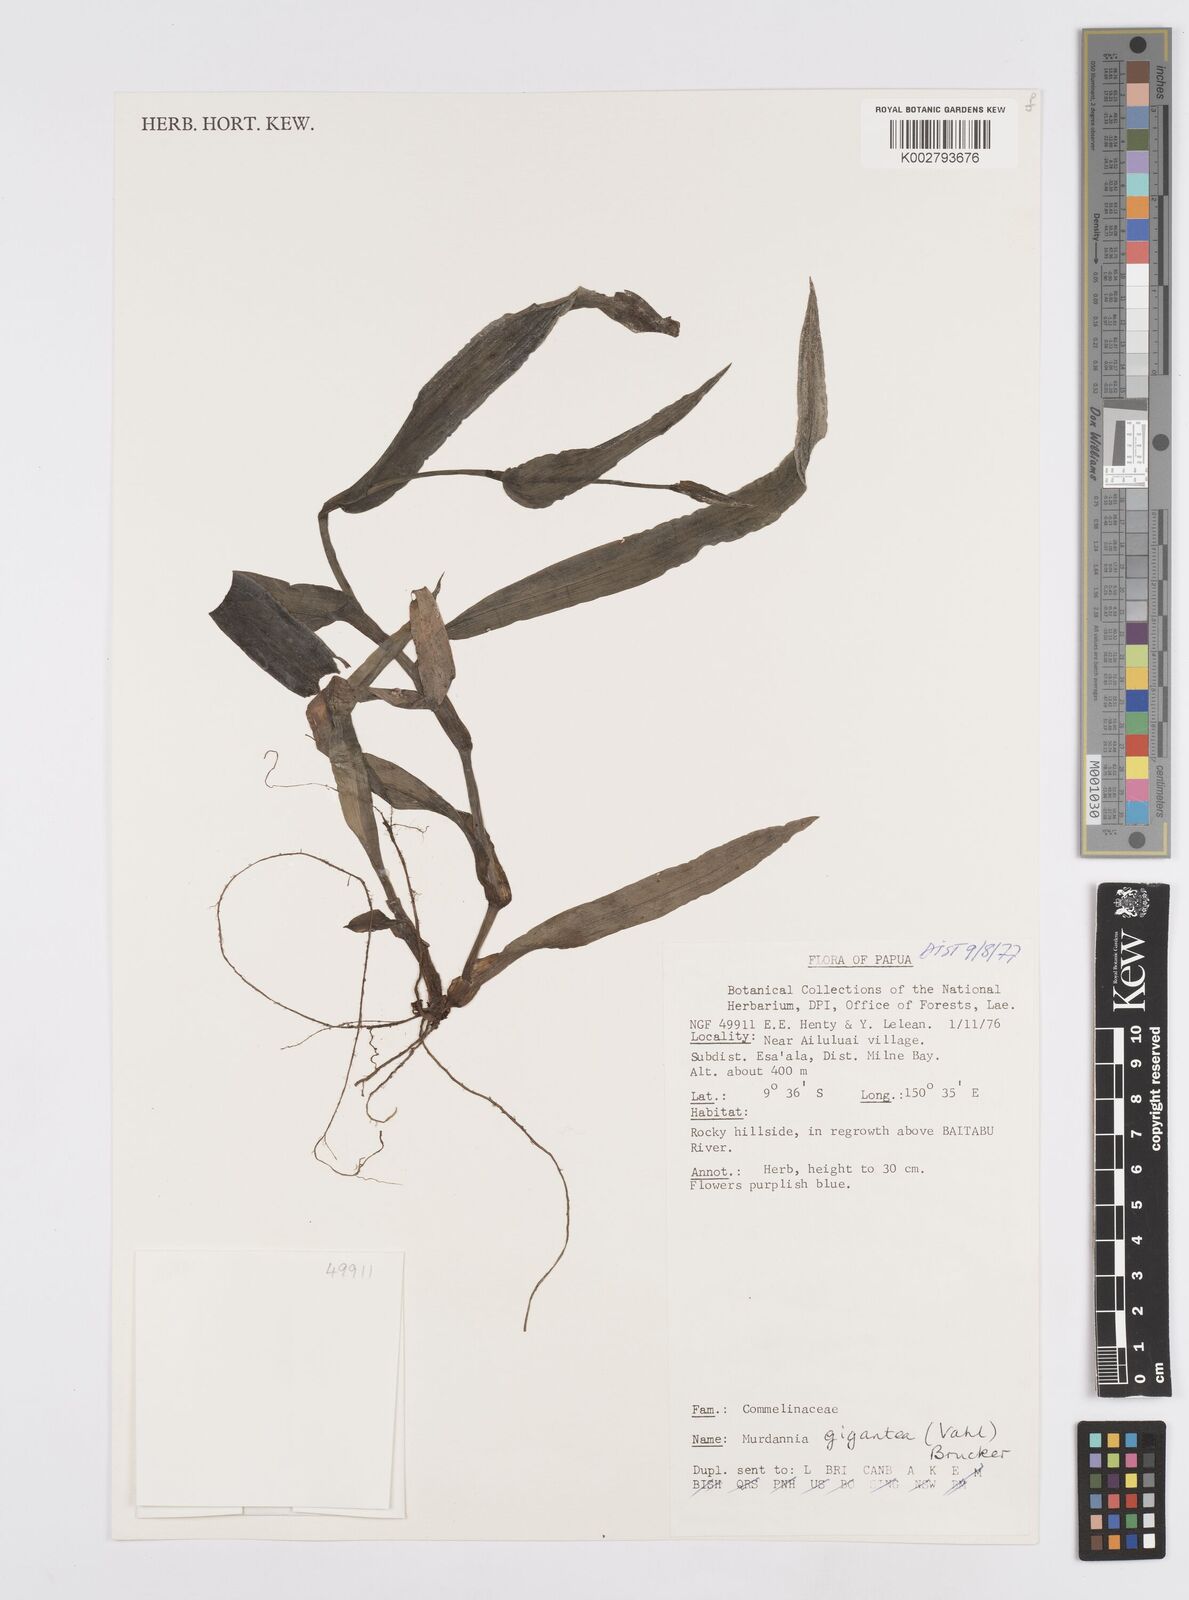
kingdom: Plantae
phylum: Tracheophyta
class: Liliopsida
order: Commelinales
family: Commelinaceae
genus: Murdannia
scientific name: Murdannia gigantea
